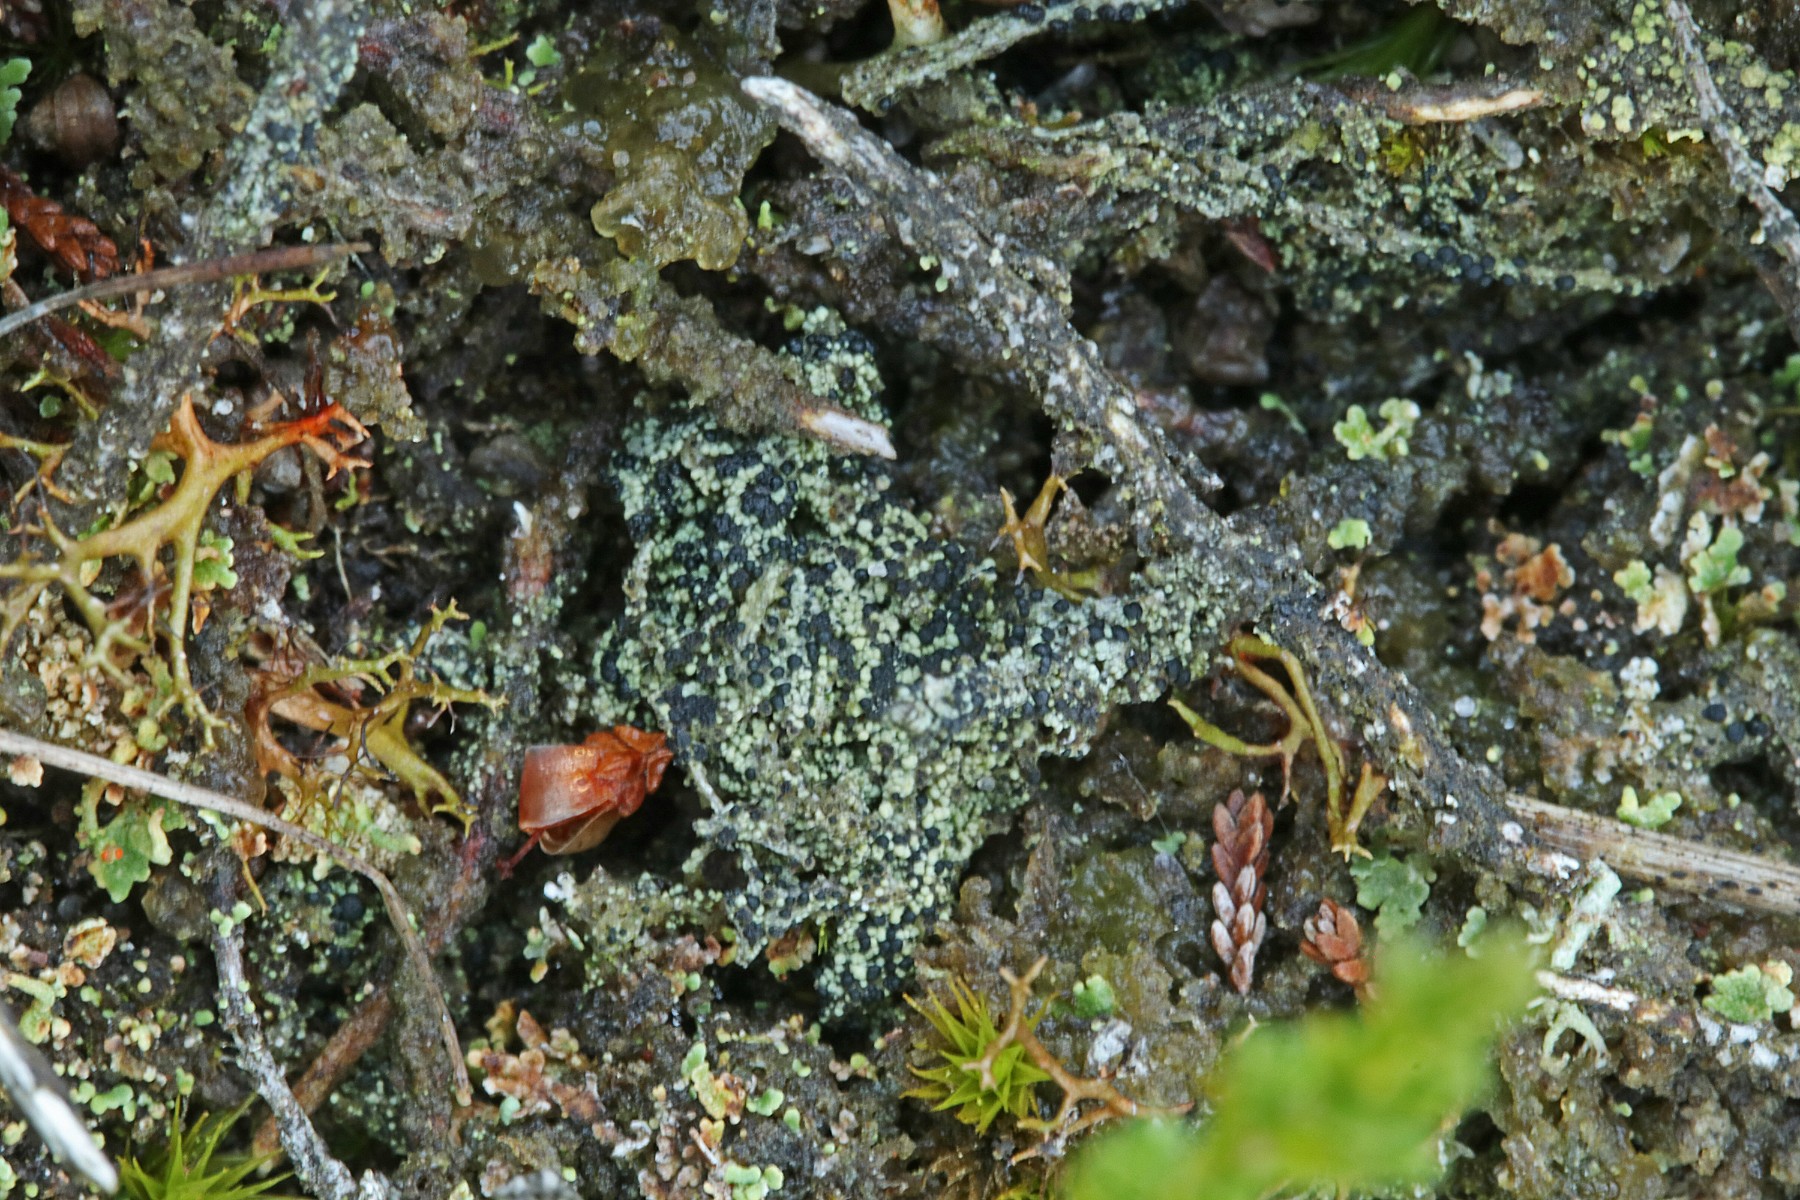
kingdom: Fungi
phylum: Ascomycota
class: Lecanoromycetes
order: Lecanorales
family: Byssolomataceae
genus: Micarea
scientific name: Micarea lignaria
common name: tørve-knaplav
